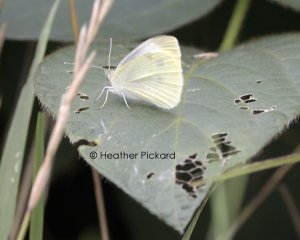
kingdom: Animalia
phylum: Arthropoda
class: Insecta
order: Lepidoptera
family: Pieridae
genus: Pieris
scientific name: Pieris rapae
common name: Cabbage White
